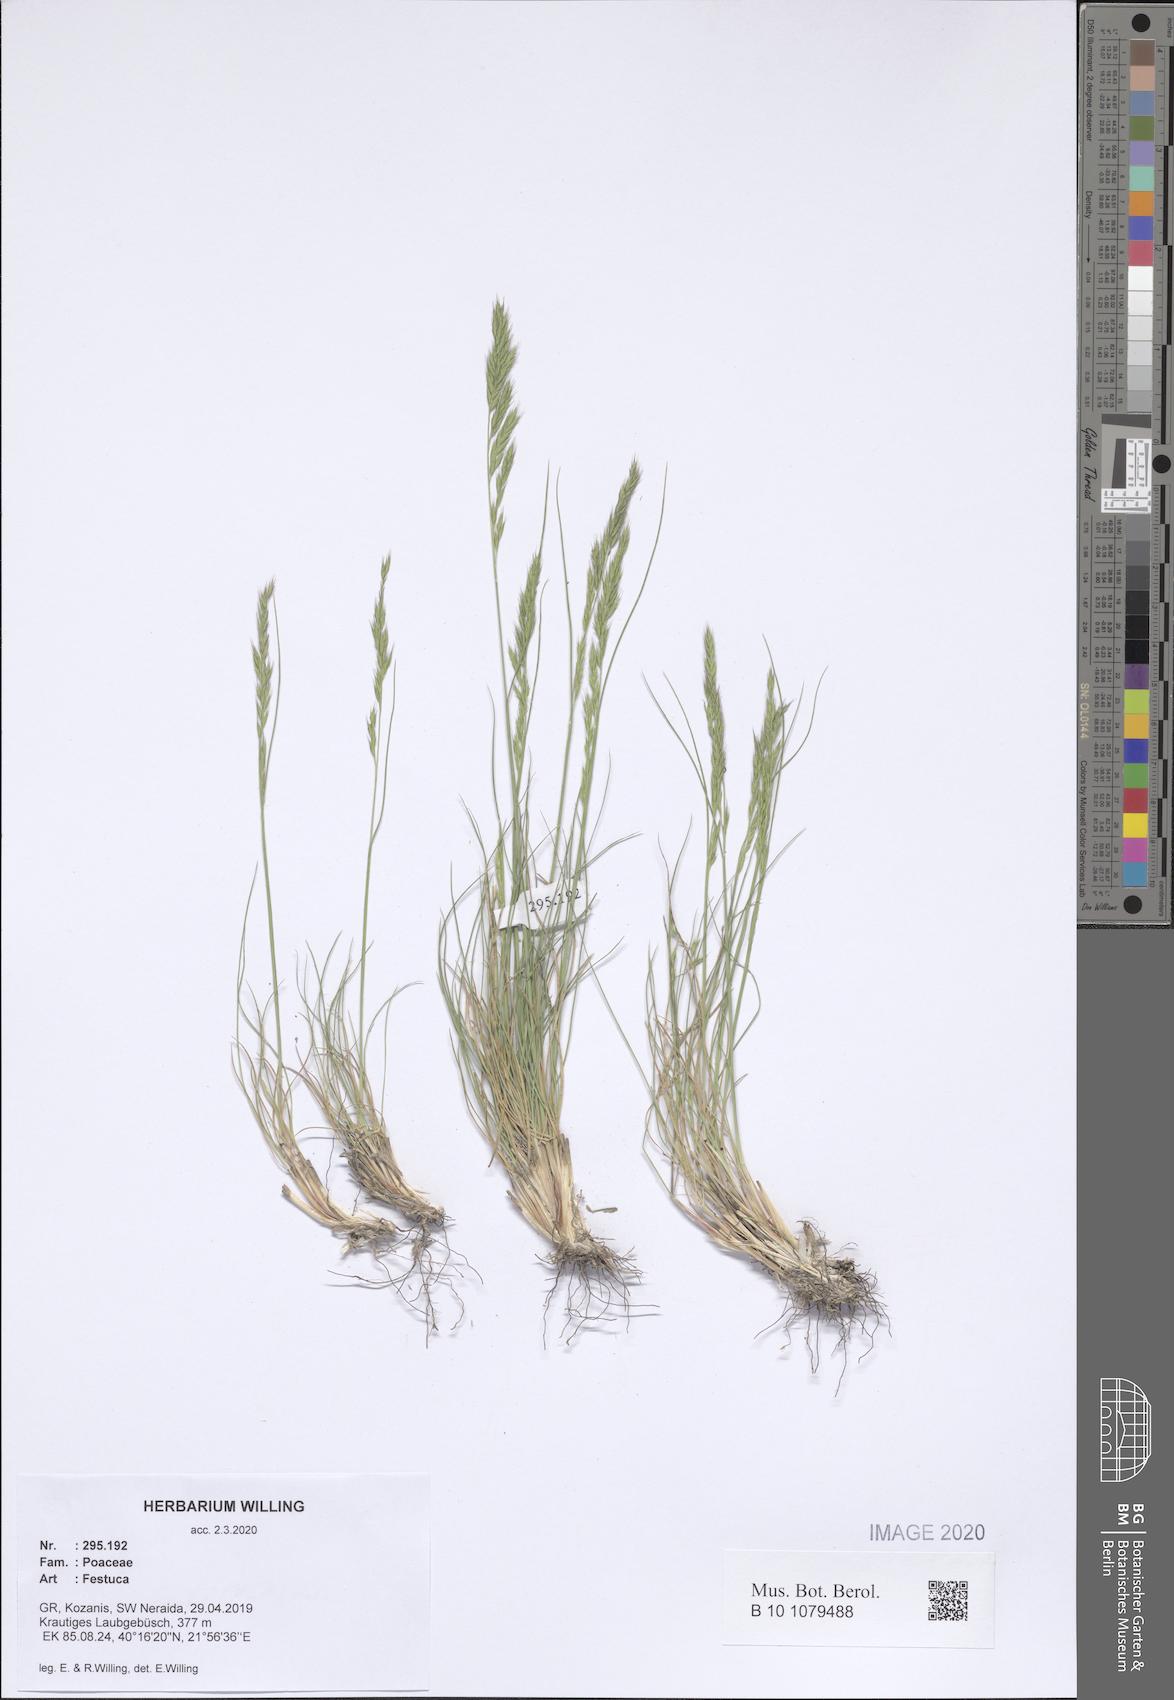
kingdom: Plantae
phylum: Tracheophyta
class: Liliopsida
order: Poales
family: Poaceae
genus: Festuca
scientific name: Festuca
